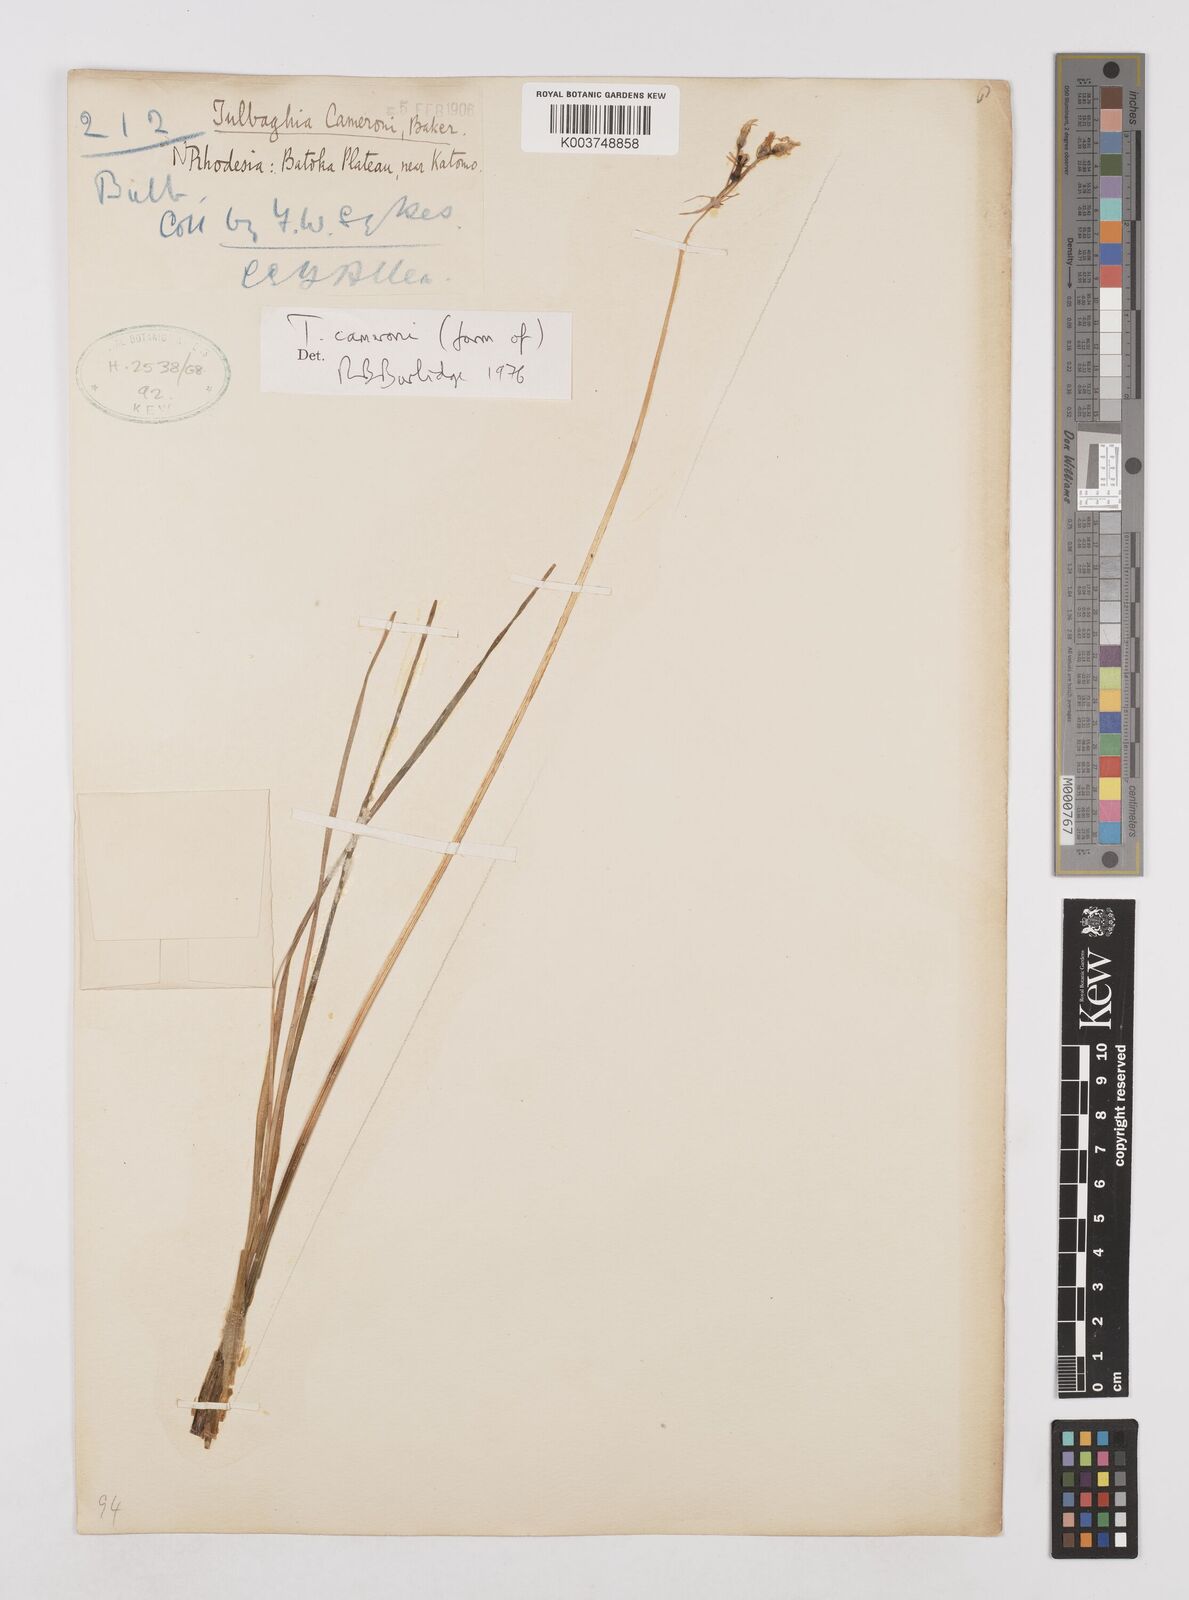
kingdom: Plantae
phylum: Tracheophyta
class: Liliopsida
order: Asparagales
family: Amaryllidaceae
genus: Tulbaghia
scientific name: Tulbaghia cameronii
